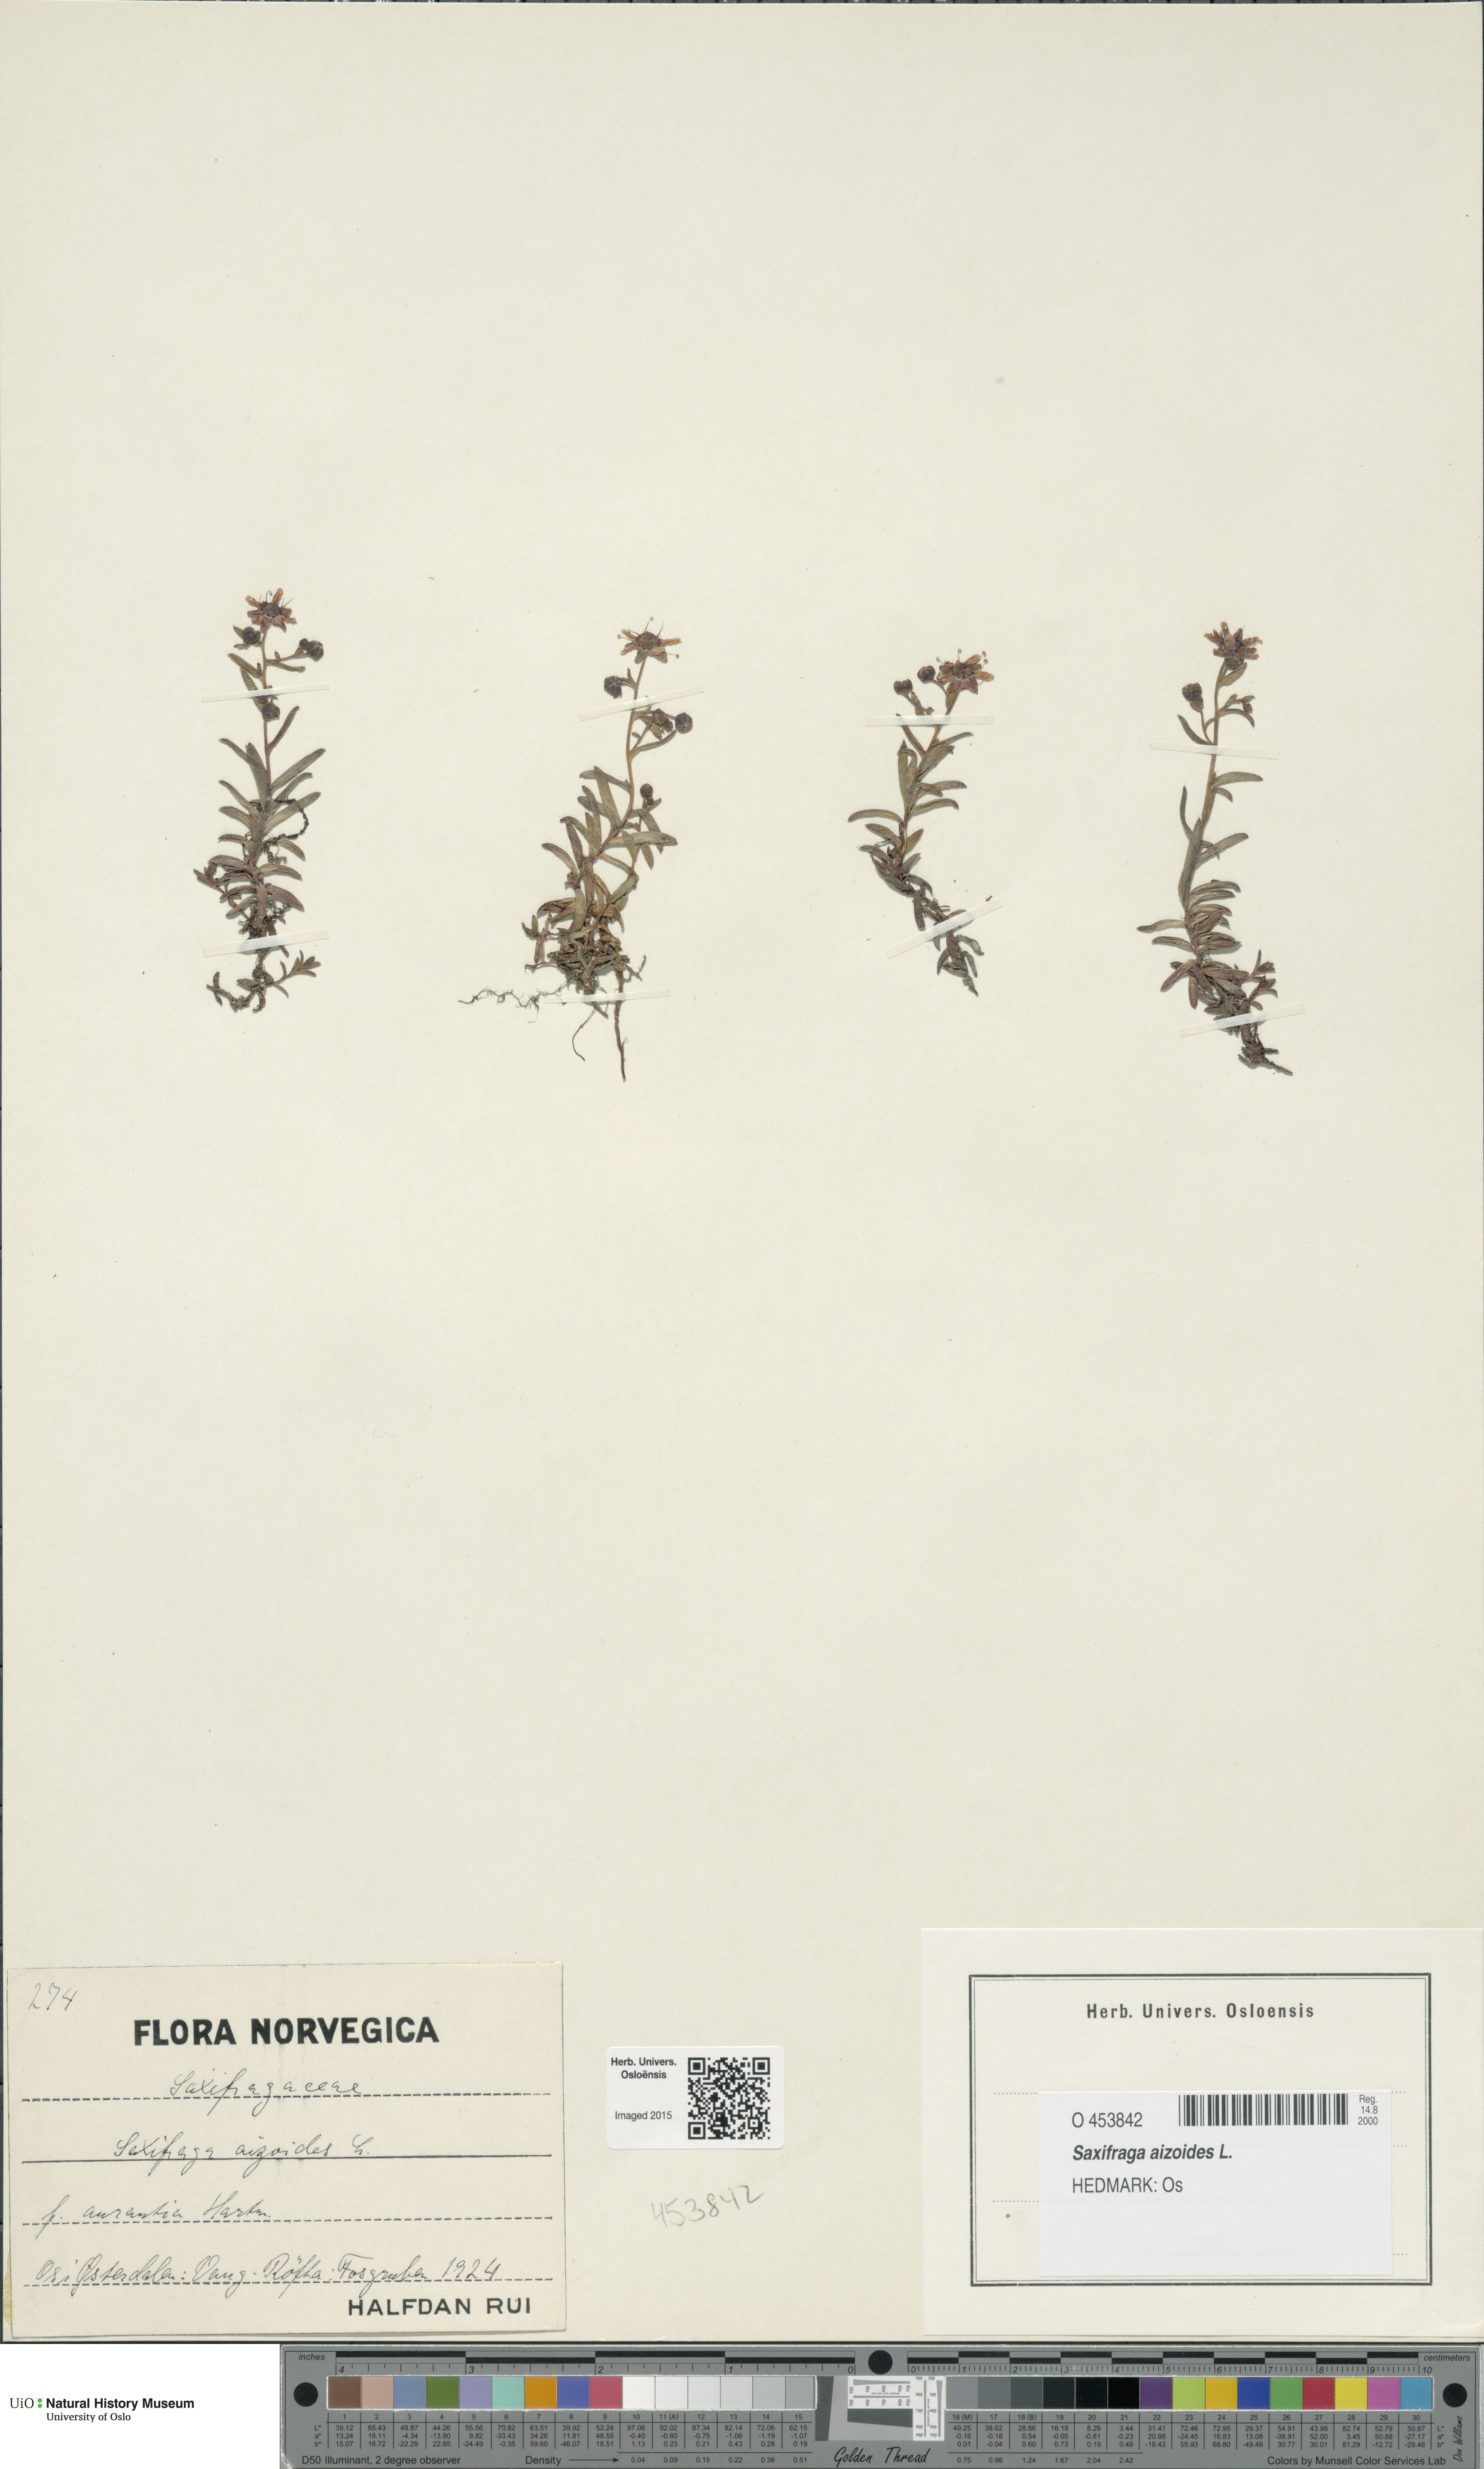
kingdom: Plantae
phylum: Tracheophyta
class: Magnoliopsida
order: Saxifragales
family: Saxifragaceae
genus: Saxifraga
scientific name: Saxifraga aizoides
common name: Yellow mountain saxifrage
